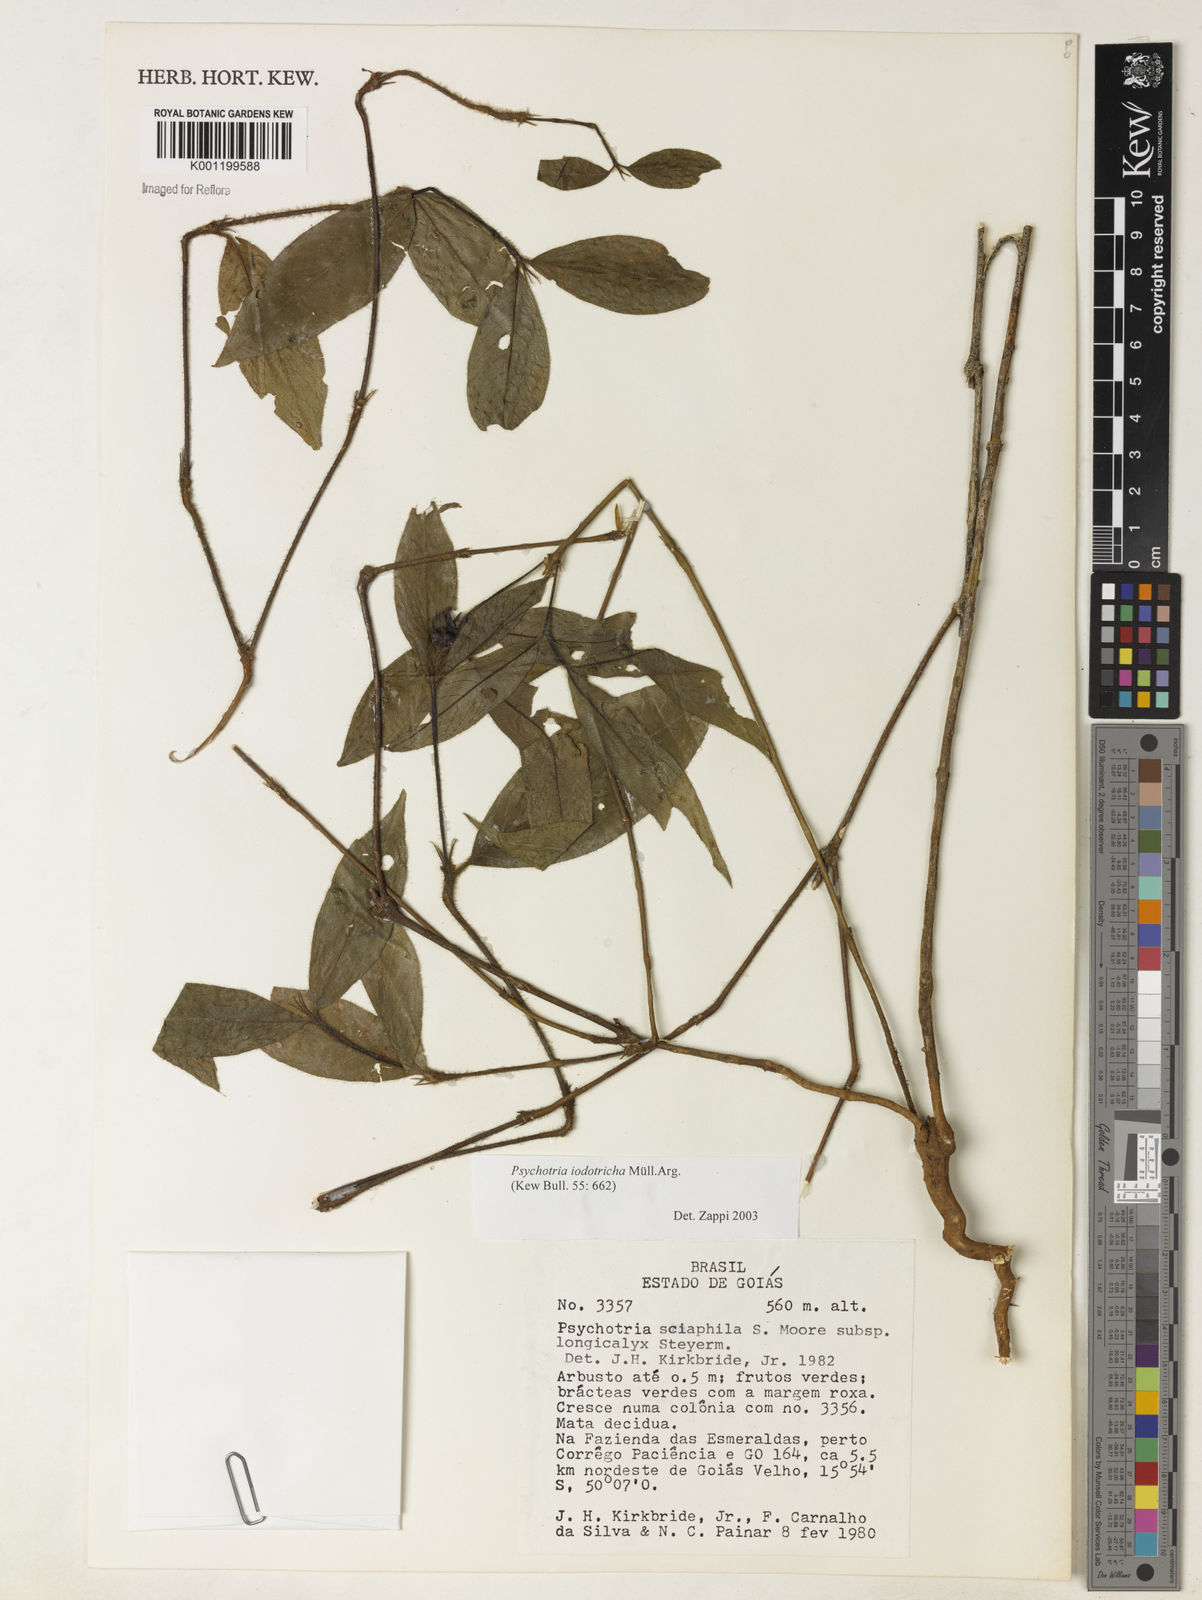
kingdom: Plantae
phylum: Tracheophyta
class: Magnoliopsida
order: Gentianales
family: Rubiaceae
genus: Psychotria
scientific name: Psychotria
